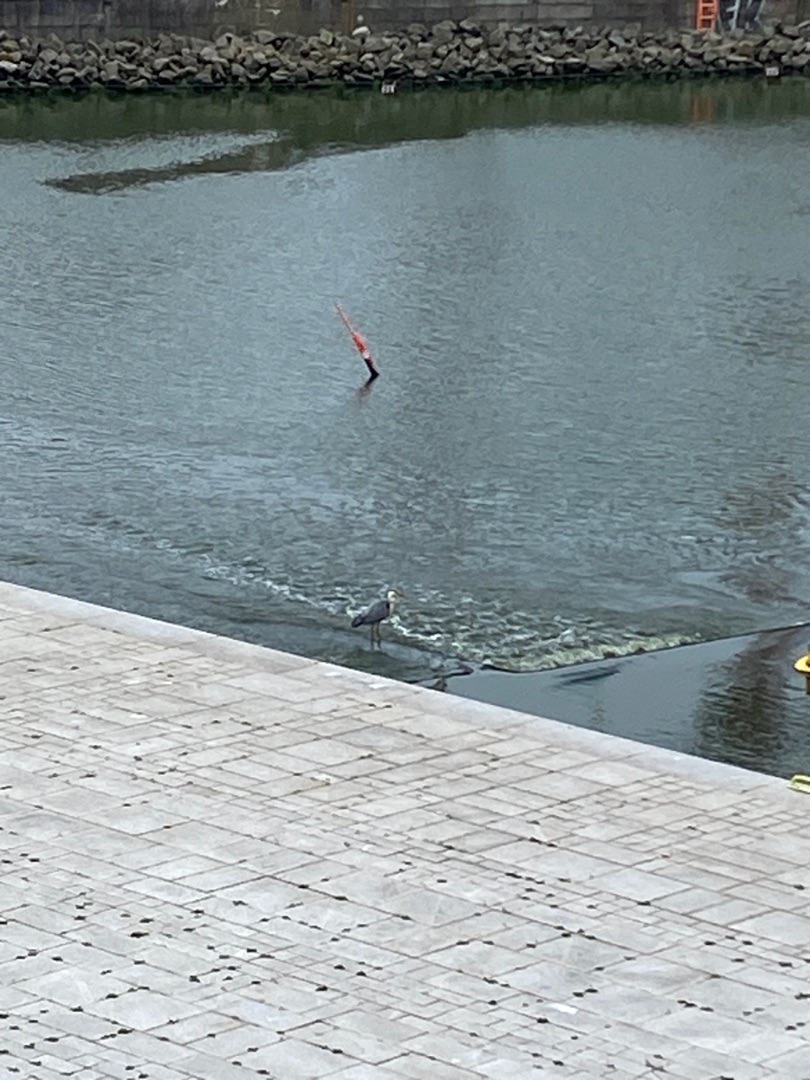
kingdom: Animalia
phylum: Chordata
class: Aves
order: Pelecaniformes
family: Ardeidae
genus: Ardea
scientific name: Ardea cinerea
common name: Fiskehejre
